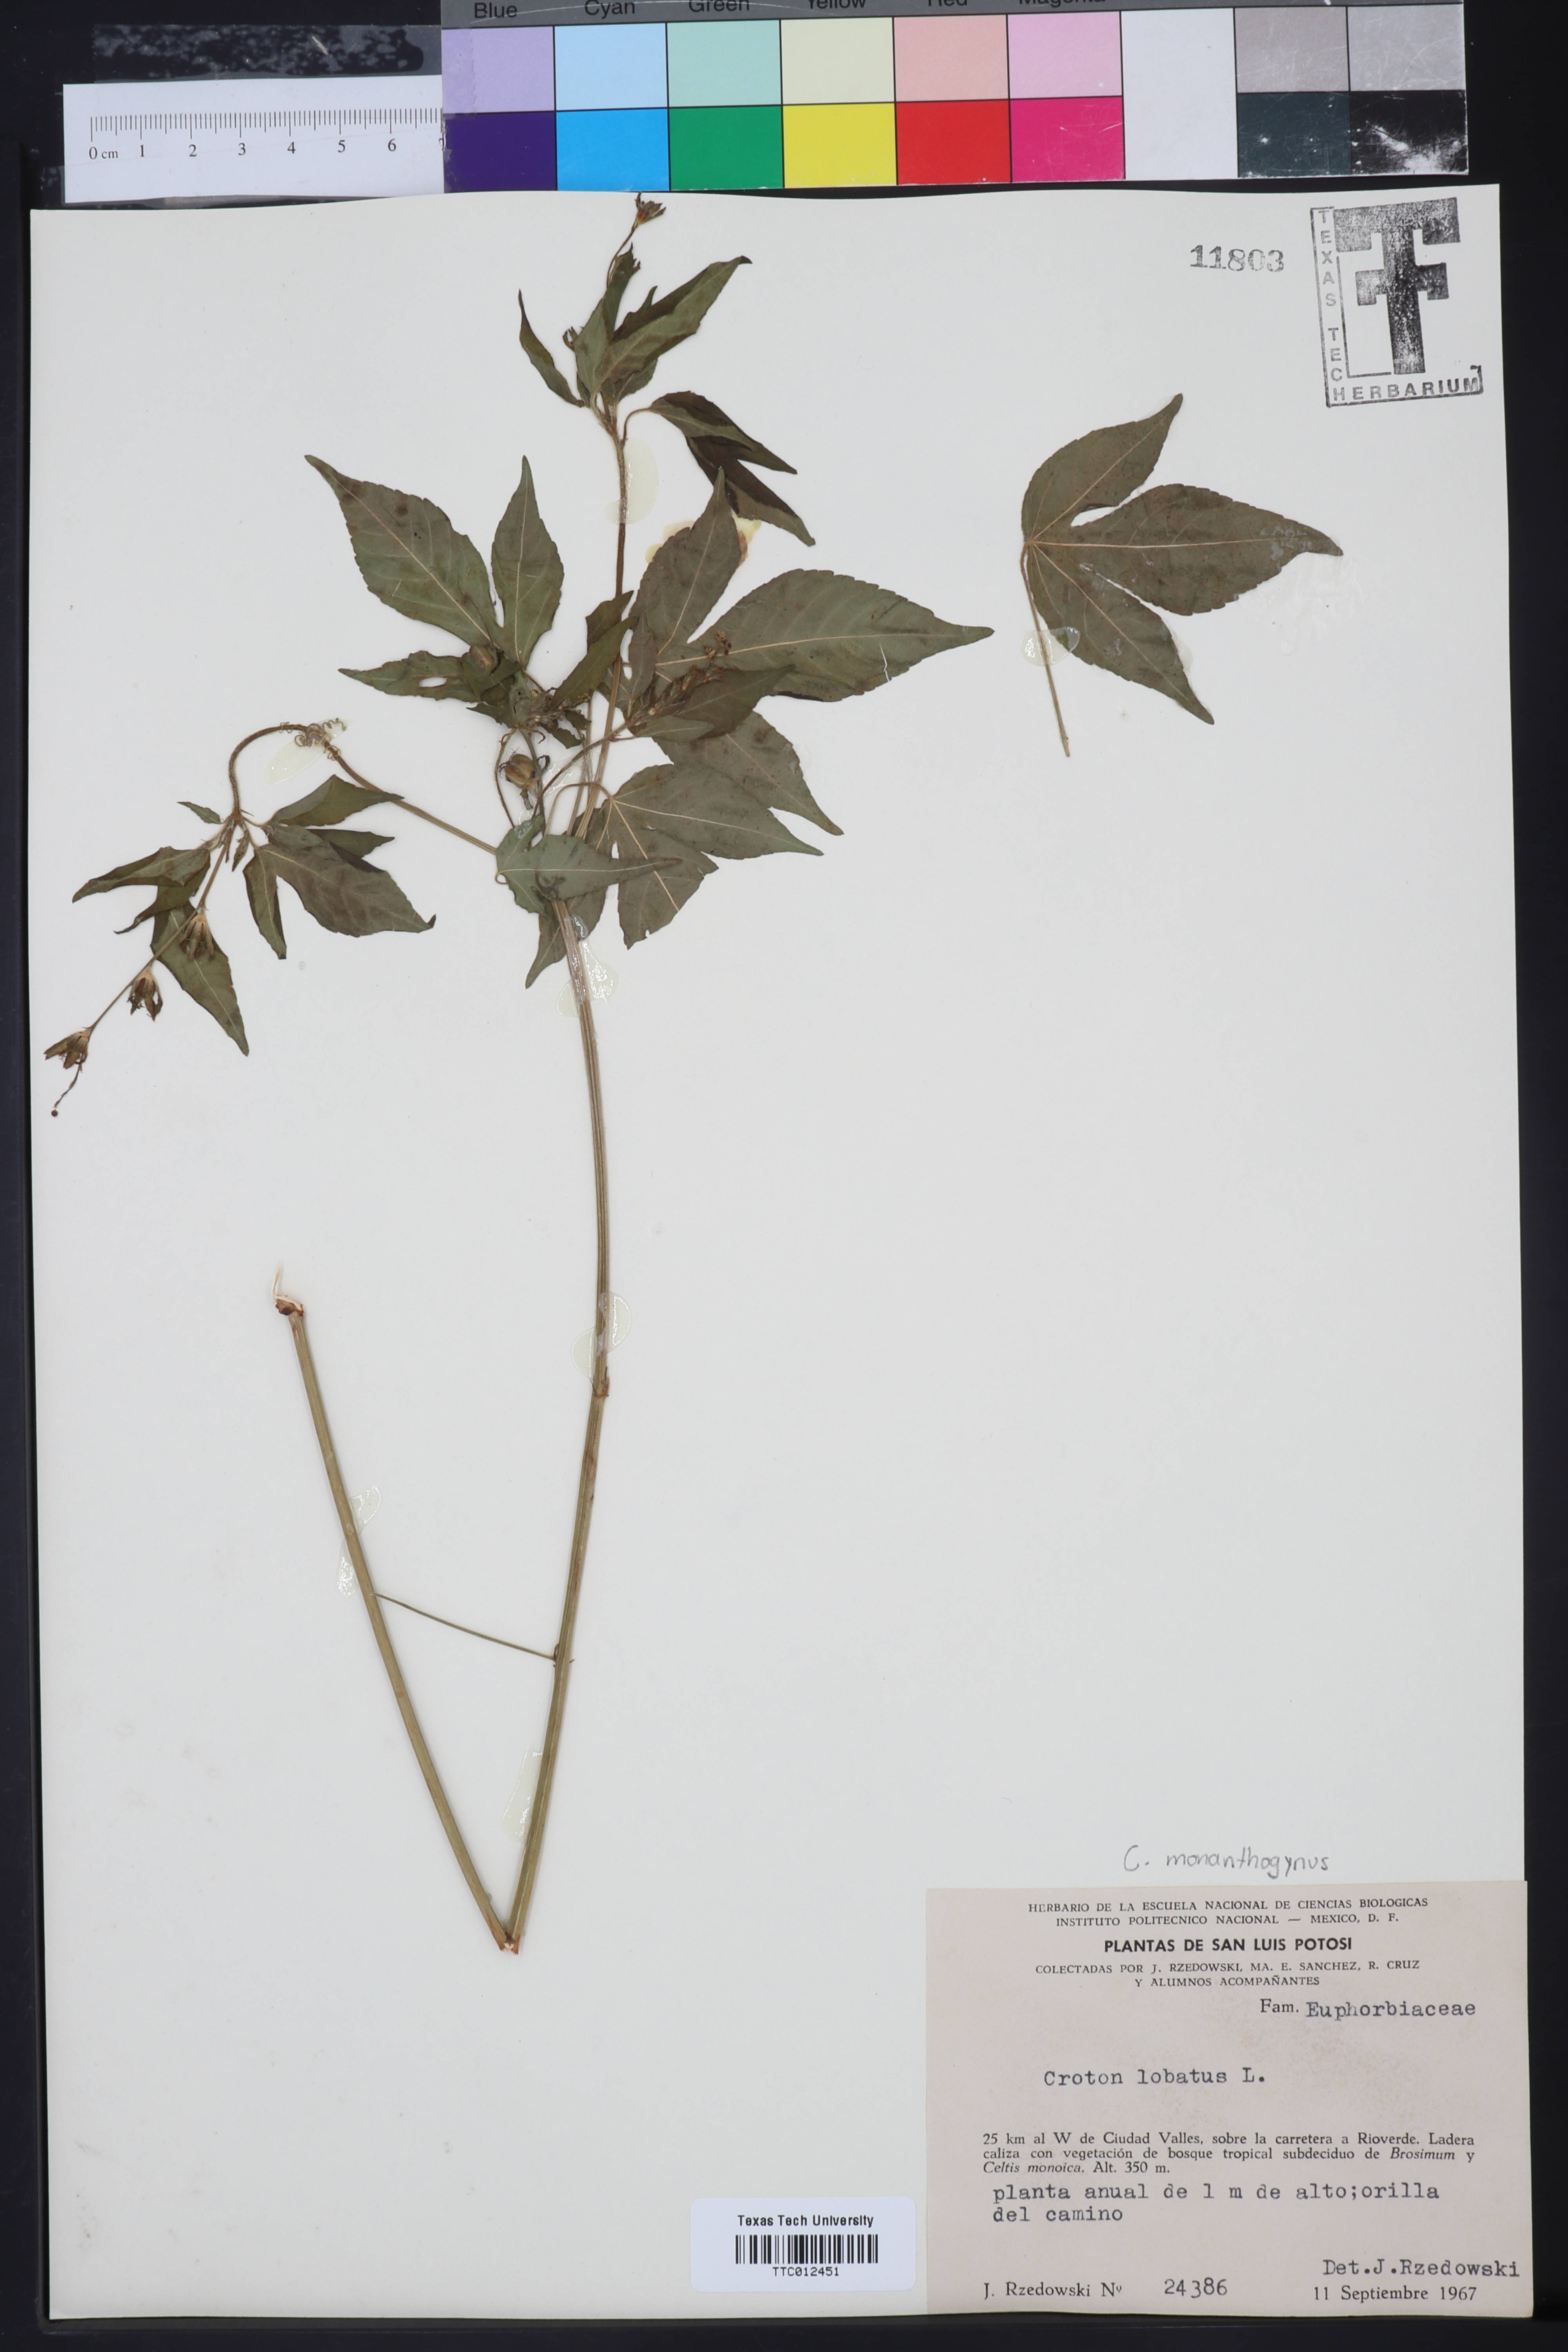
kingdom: Plantae
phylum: Tracheophyta
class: Magnoliopsida
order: Malpighiales
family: Euphorbiaceae
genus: Astraea
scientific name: Astraea lobata
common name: Lobed croton
